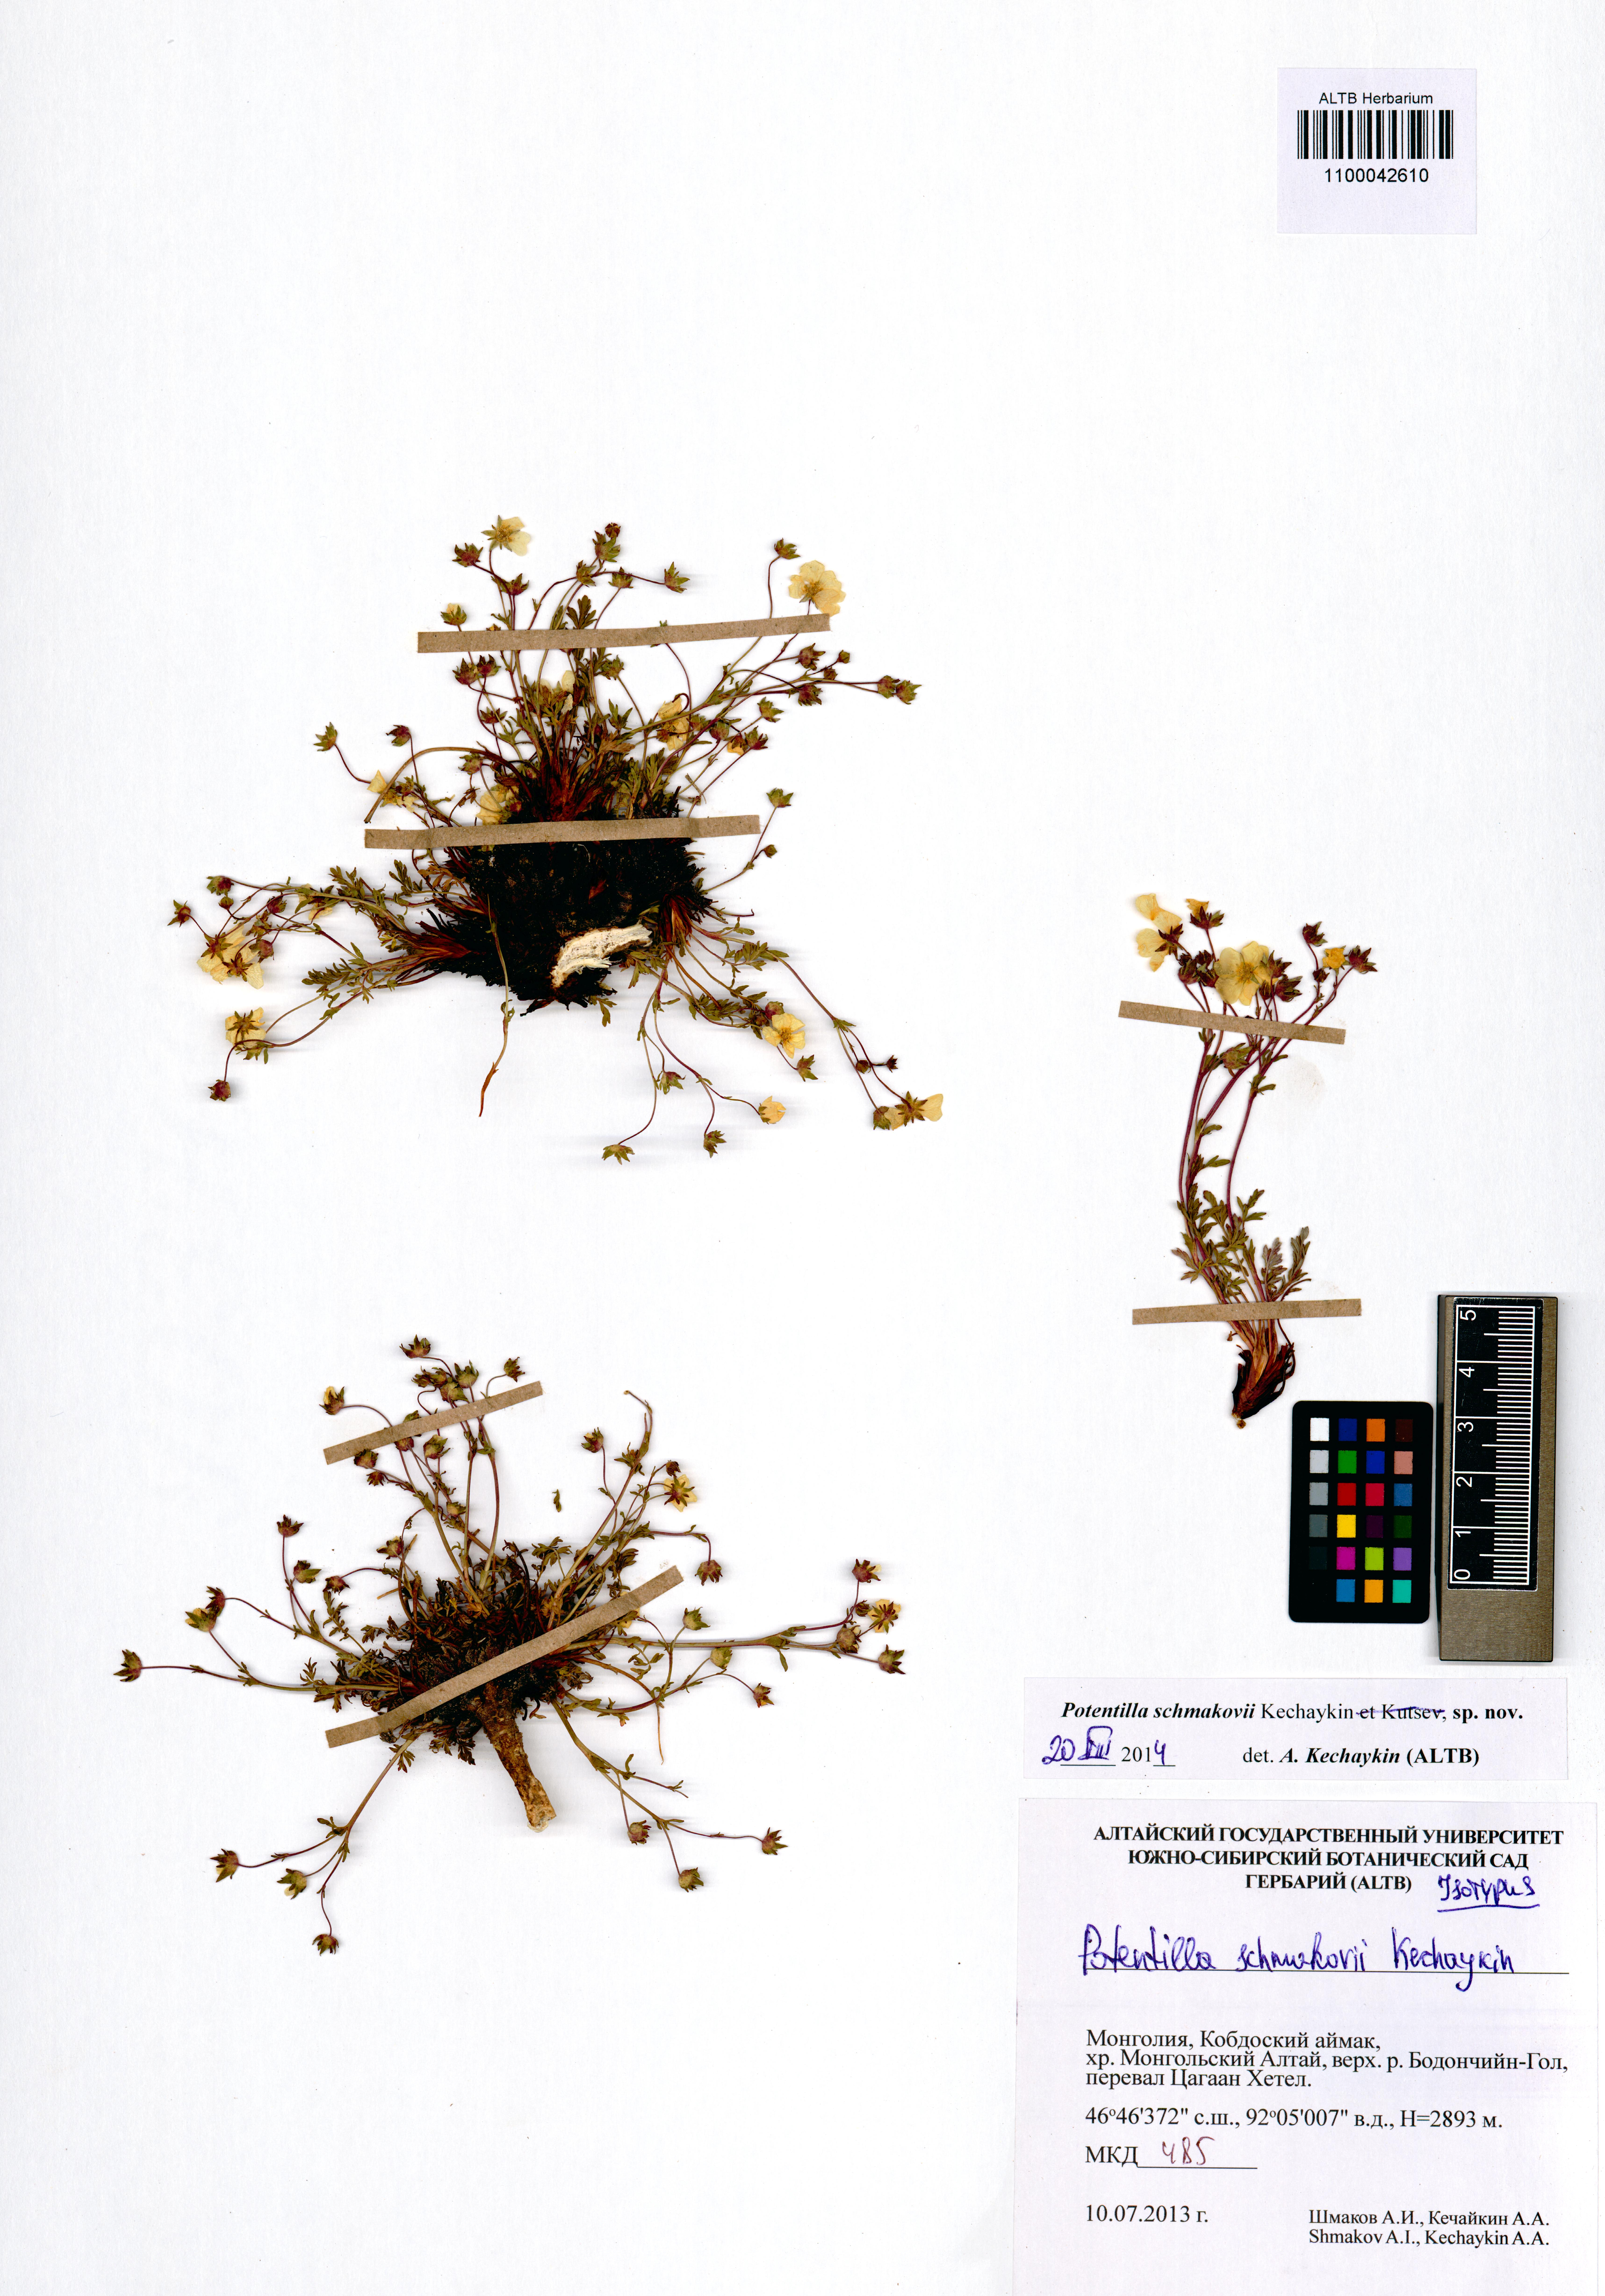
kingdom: Plantae
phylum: Tracheophyta
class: Magnoliopsida
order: Rosales
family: Rosaceae
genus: Potentilla
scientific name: Potentilla schmakovii
